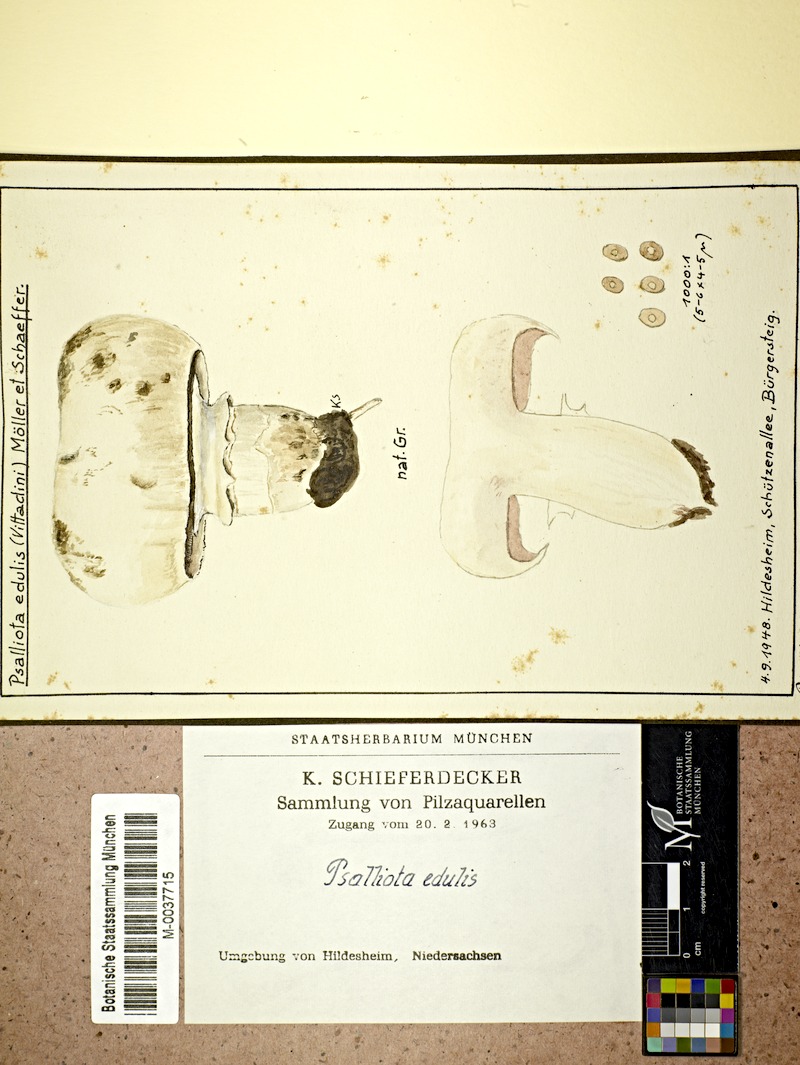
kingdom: Fungi
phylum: Basidiomycota
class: Agaricomycetes
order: Agaricales
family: Agaricaceae
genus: Agaricus
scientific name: Agaricus bitorquis
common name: Pavement mushroom
